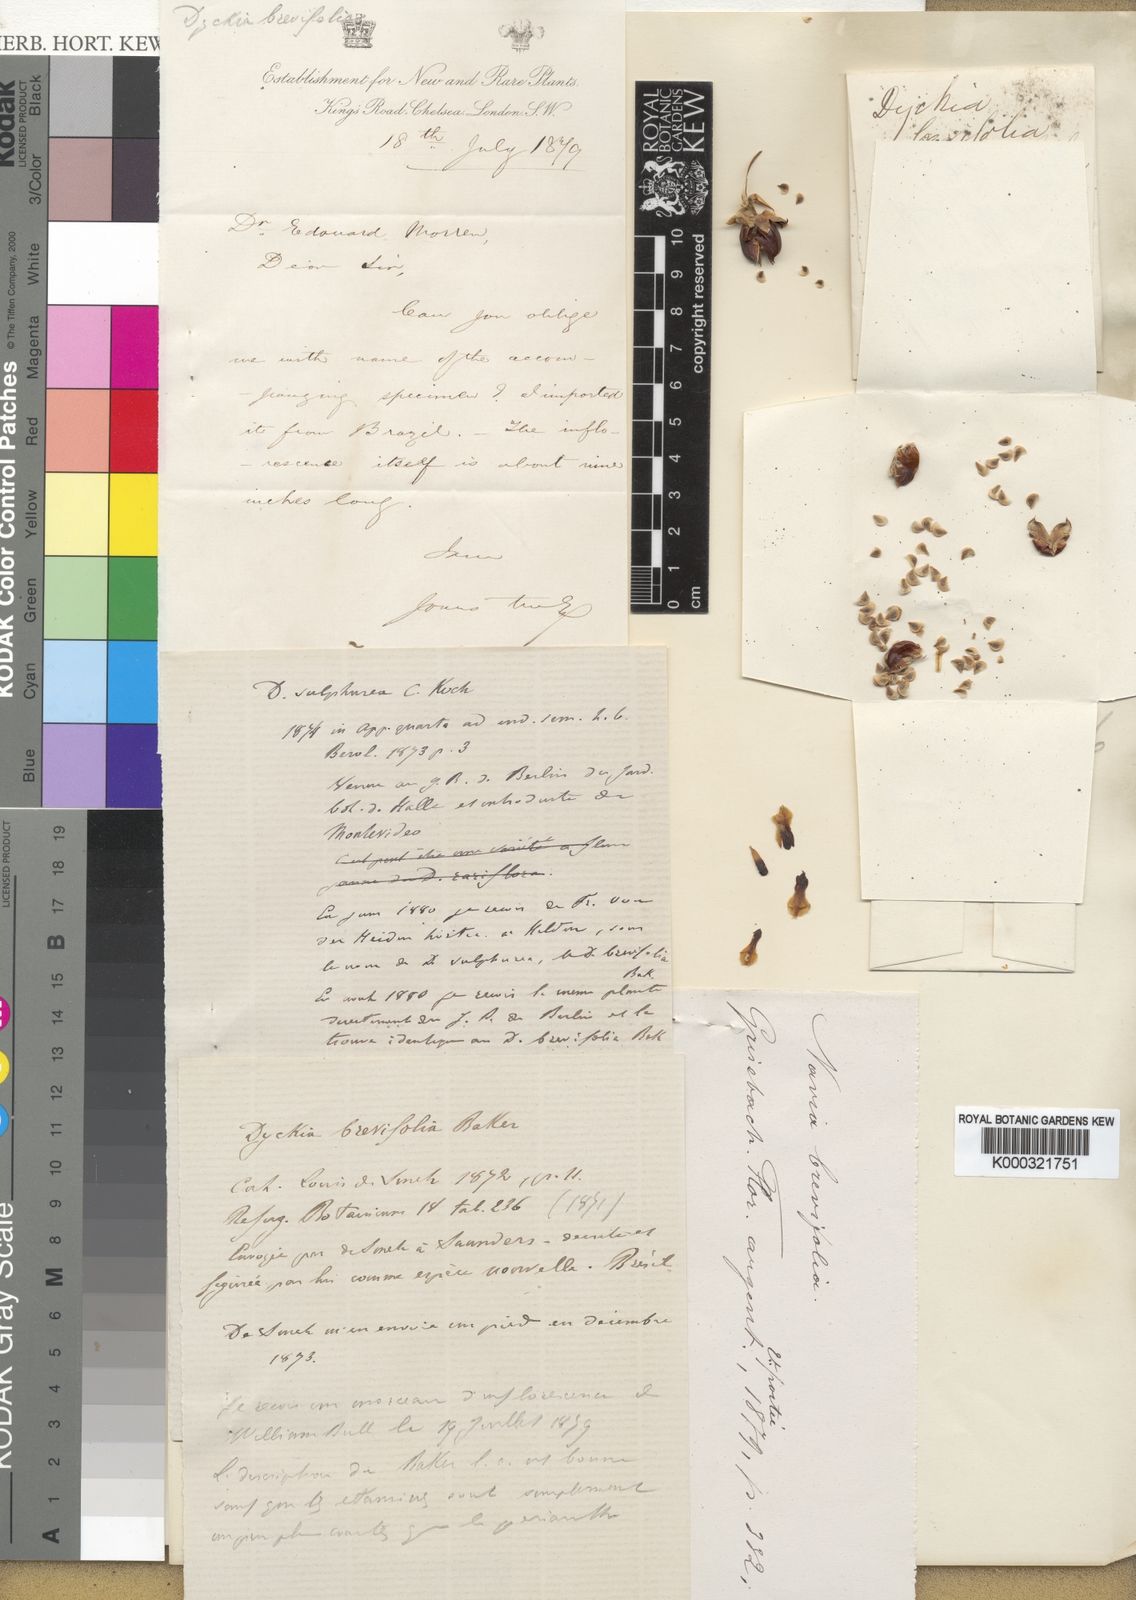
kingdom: Plantae
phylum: Tracheophyta
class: Liliopsida
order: Poales
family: Bromeliaceae
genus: Dyckia
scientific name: Dyckia brevifolia
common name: Sawblade
